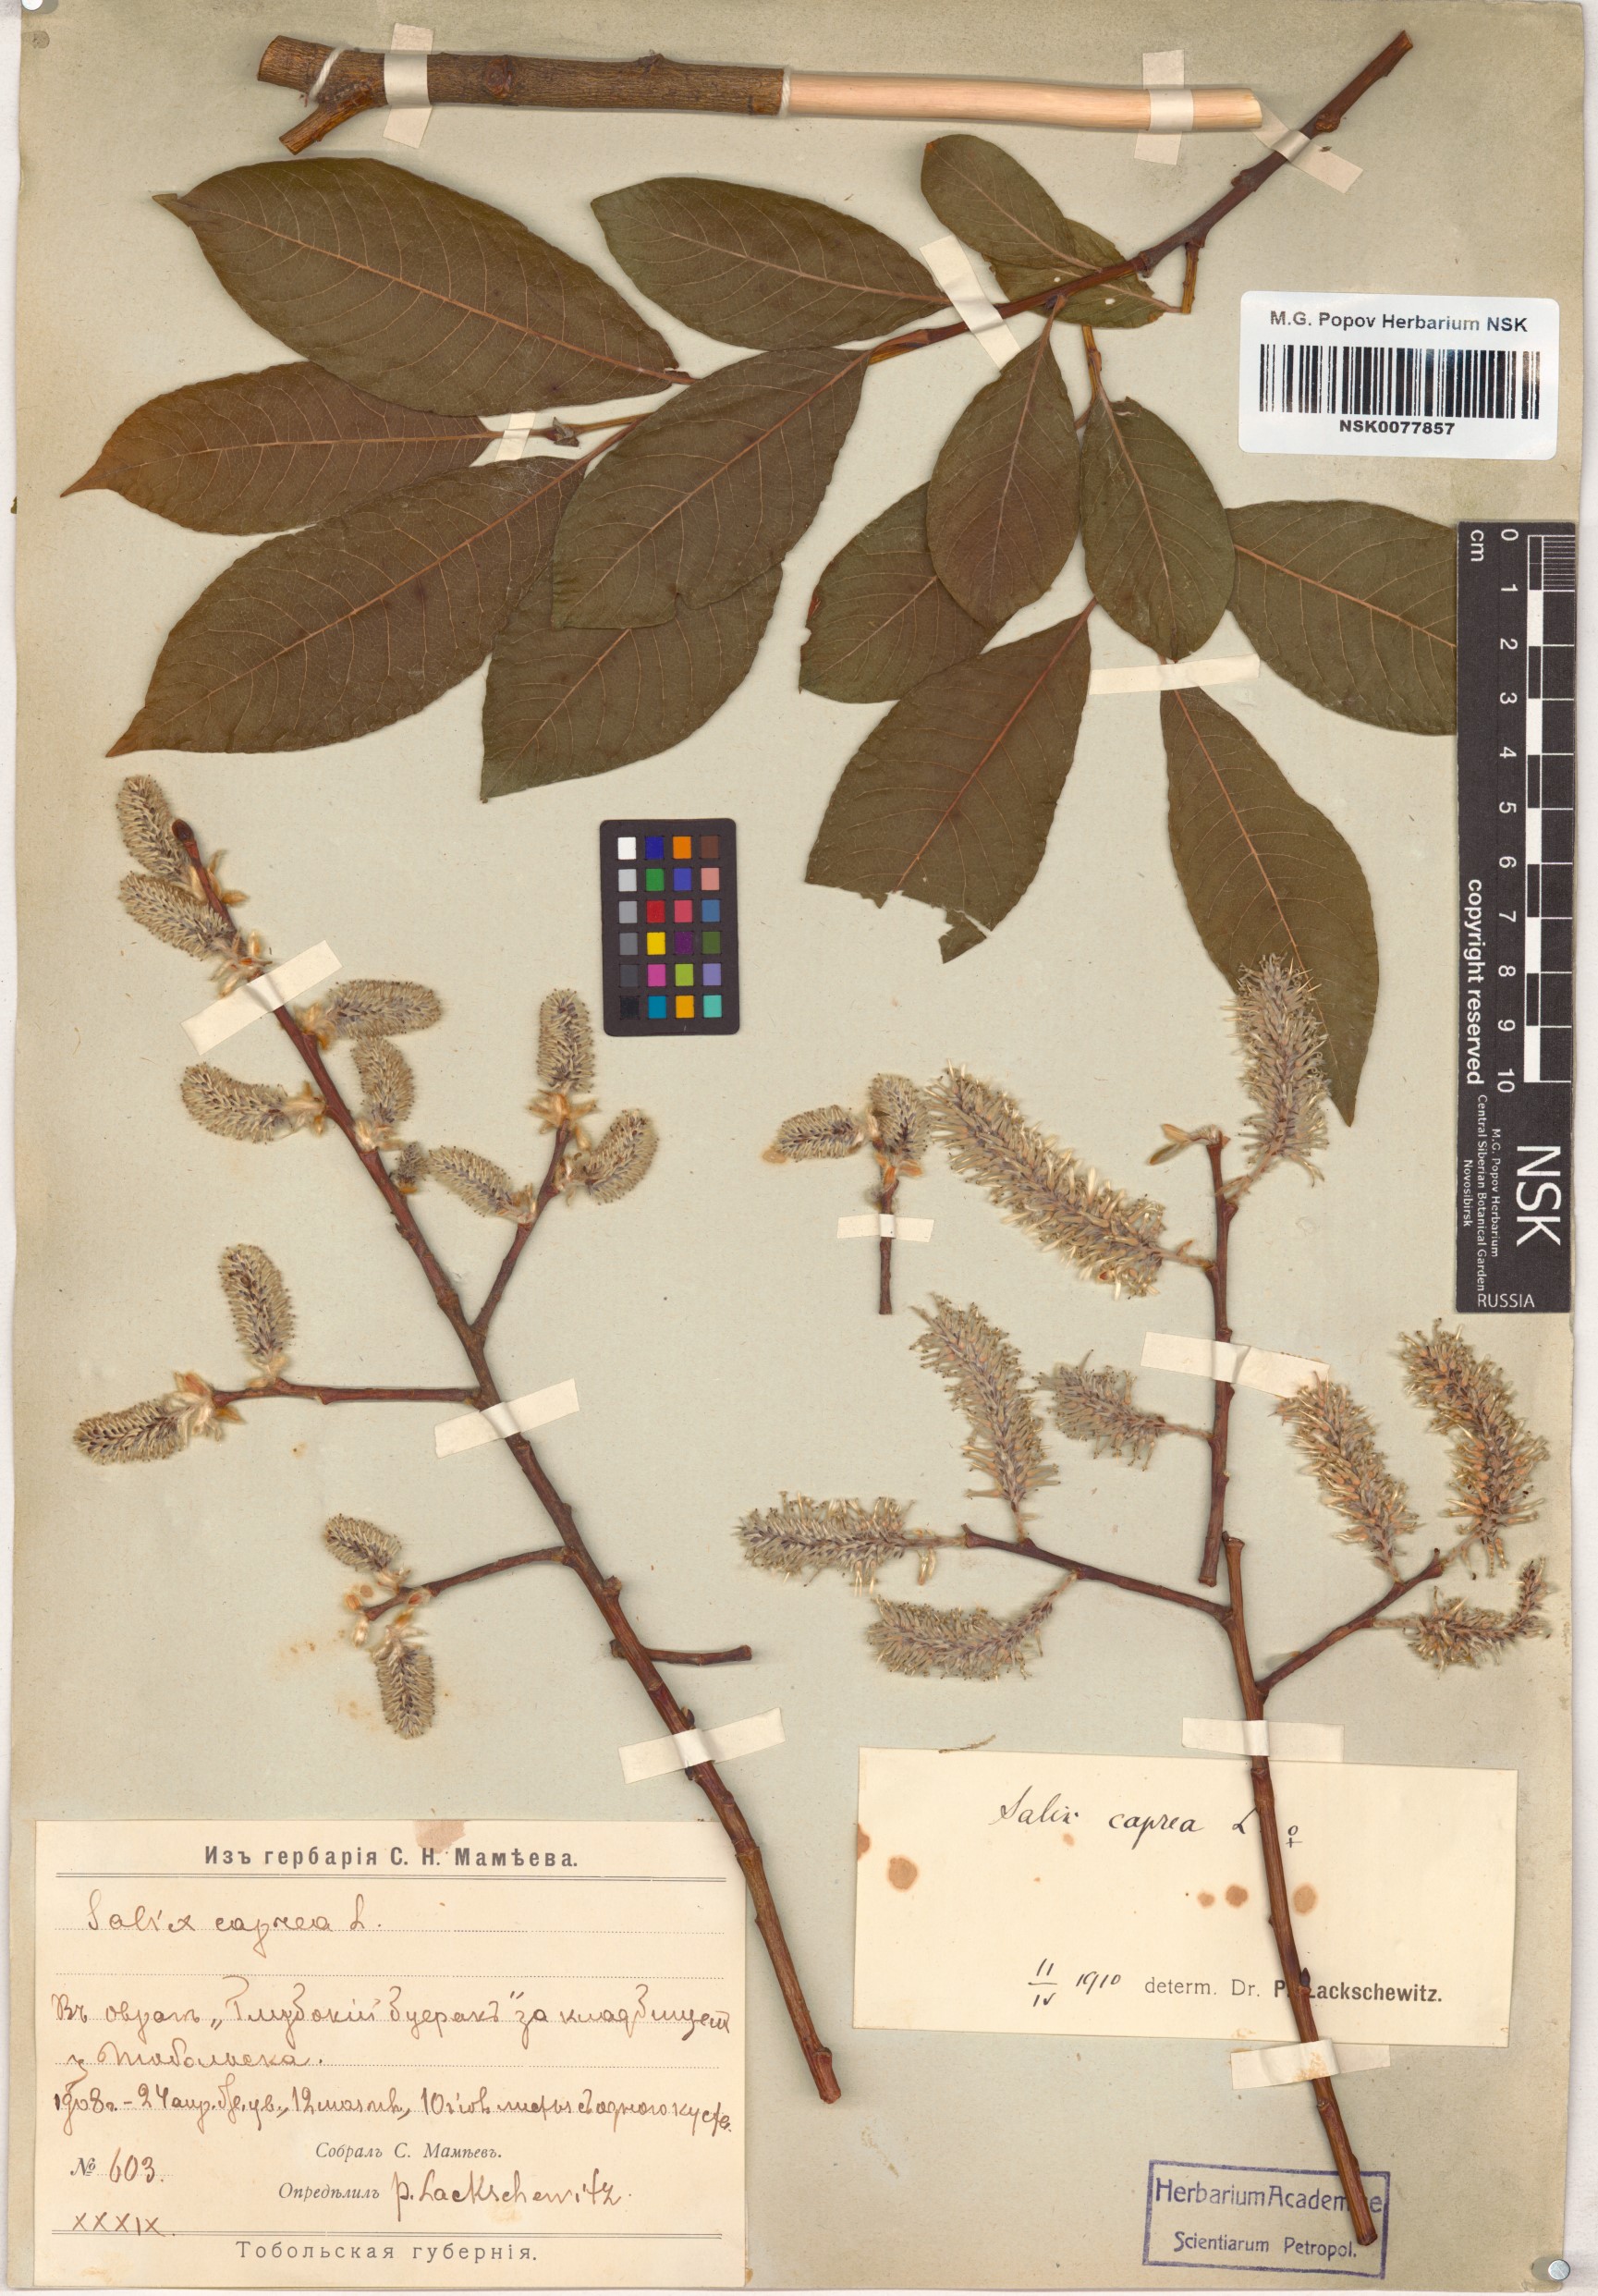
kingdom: Plantae
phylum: Tracheophyta
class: Magnoliopsida
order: Malpighiales
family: Salicaceae
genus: Salix
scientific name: Salix caprea
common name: Goat willow
